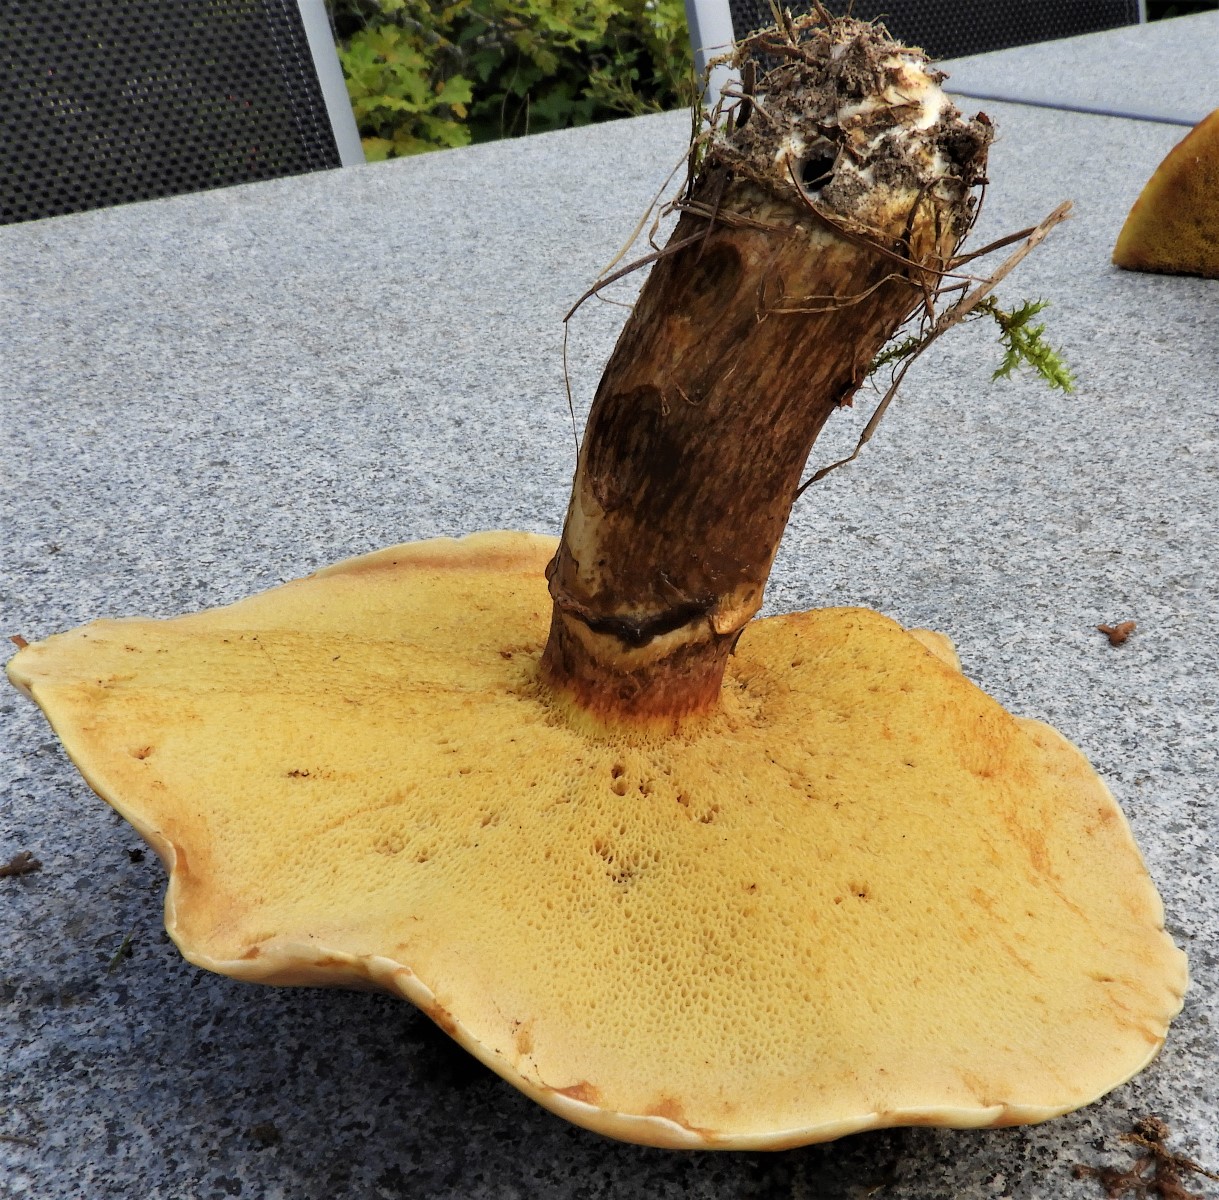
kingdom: Fungi
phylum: Basidiomycota
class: Agaricomycetes
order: Boletales
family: Suillaceae
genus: Suillus
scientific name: Suillus grevillei
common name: lærke-slimrørhat
